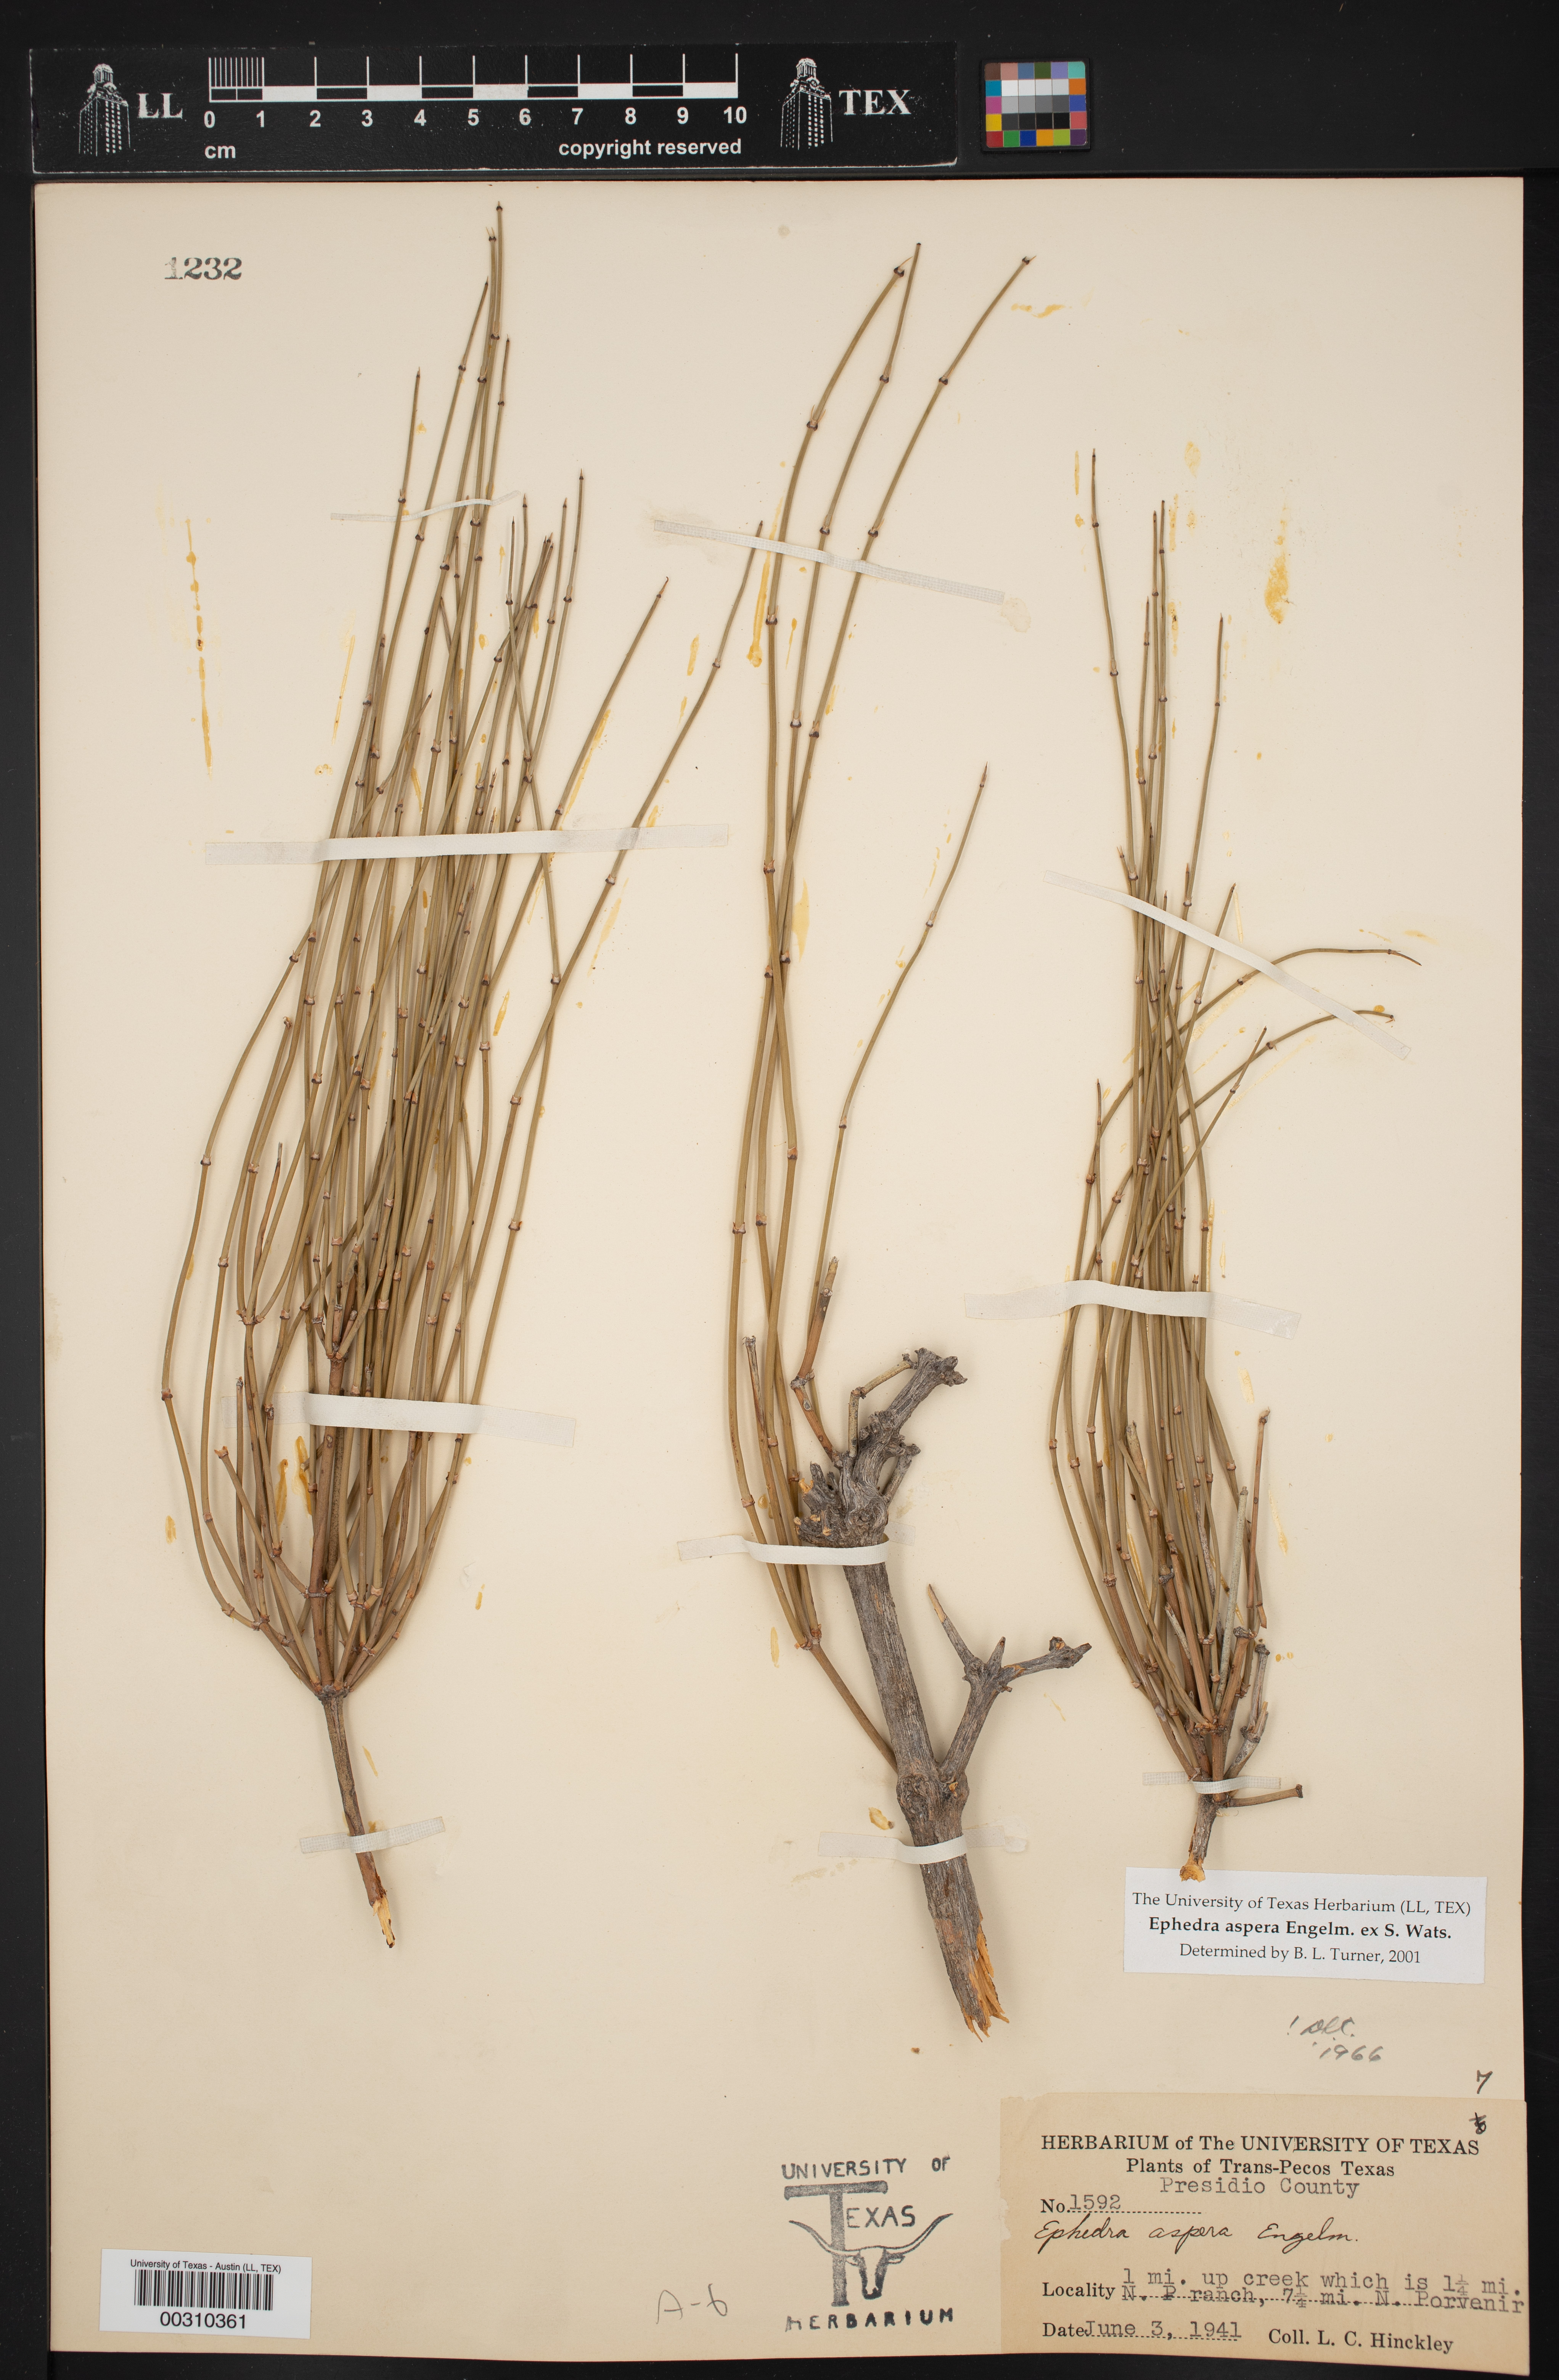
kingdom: Plantae
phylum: Tracheophyta
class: Gnetopsida
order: Ephedrales
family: Ephedraceae
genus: Ephedra
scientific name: Ephedra aspera
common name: Boundary ephedra
